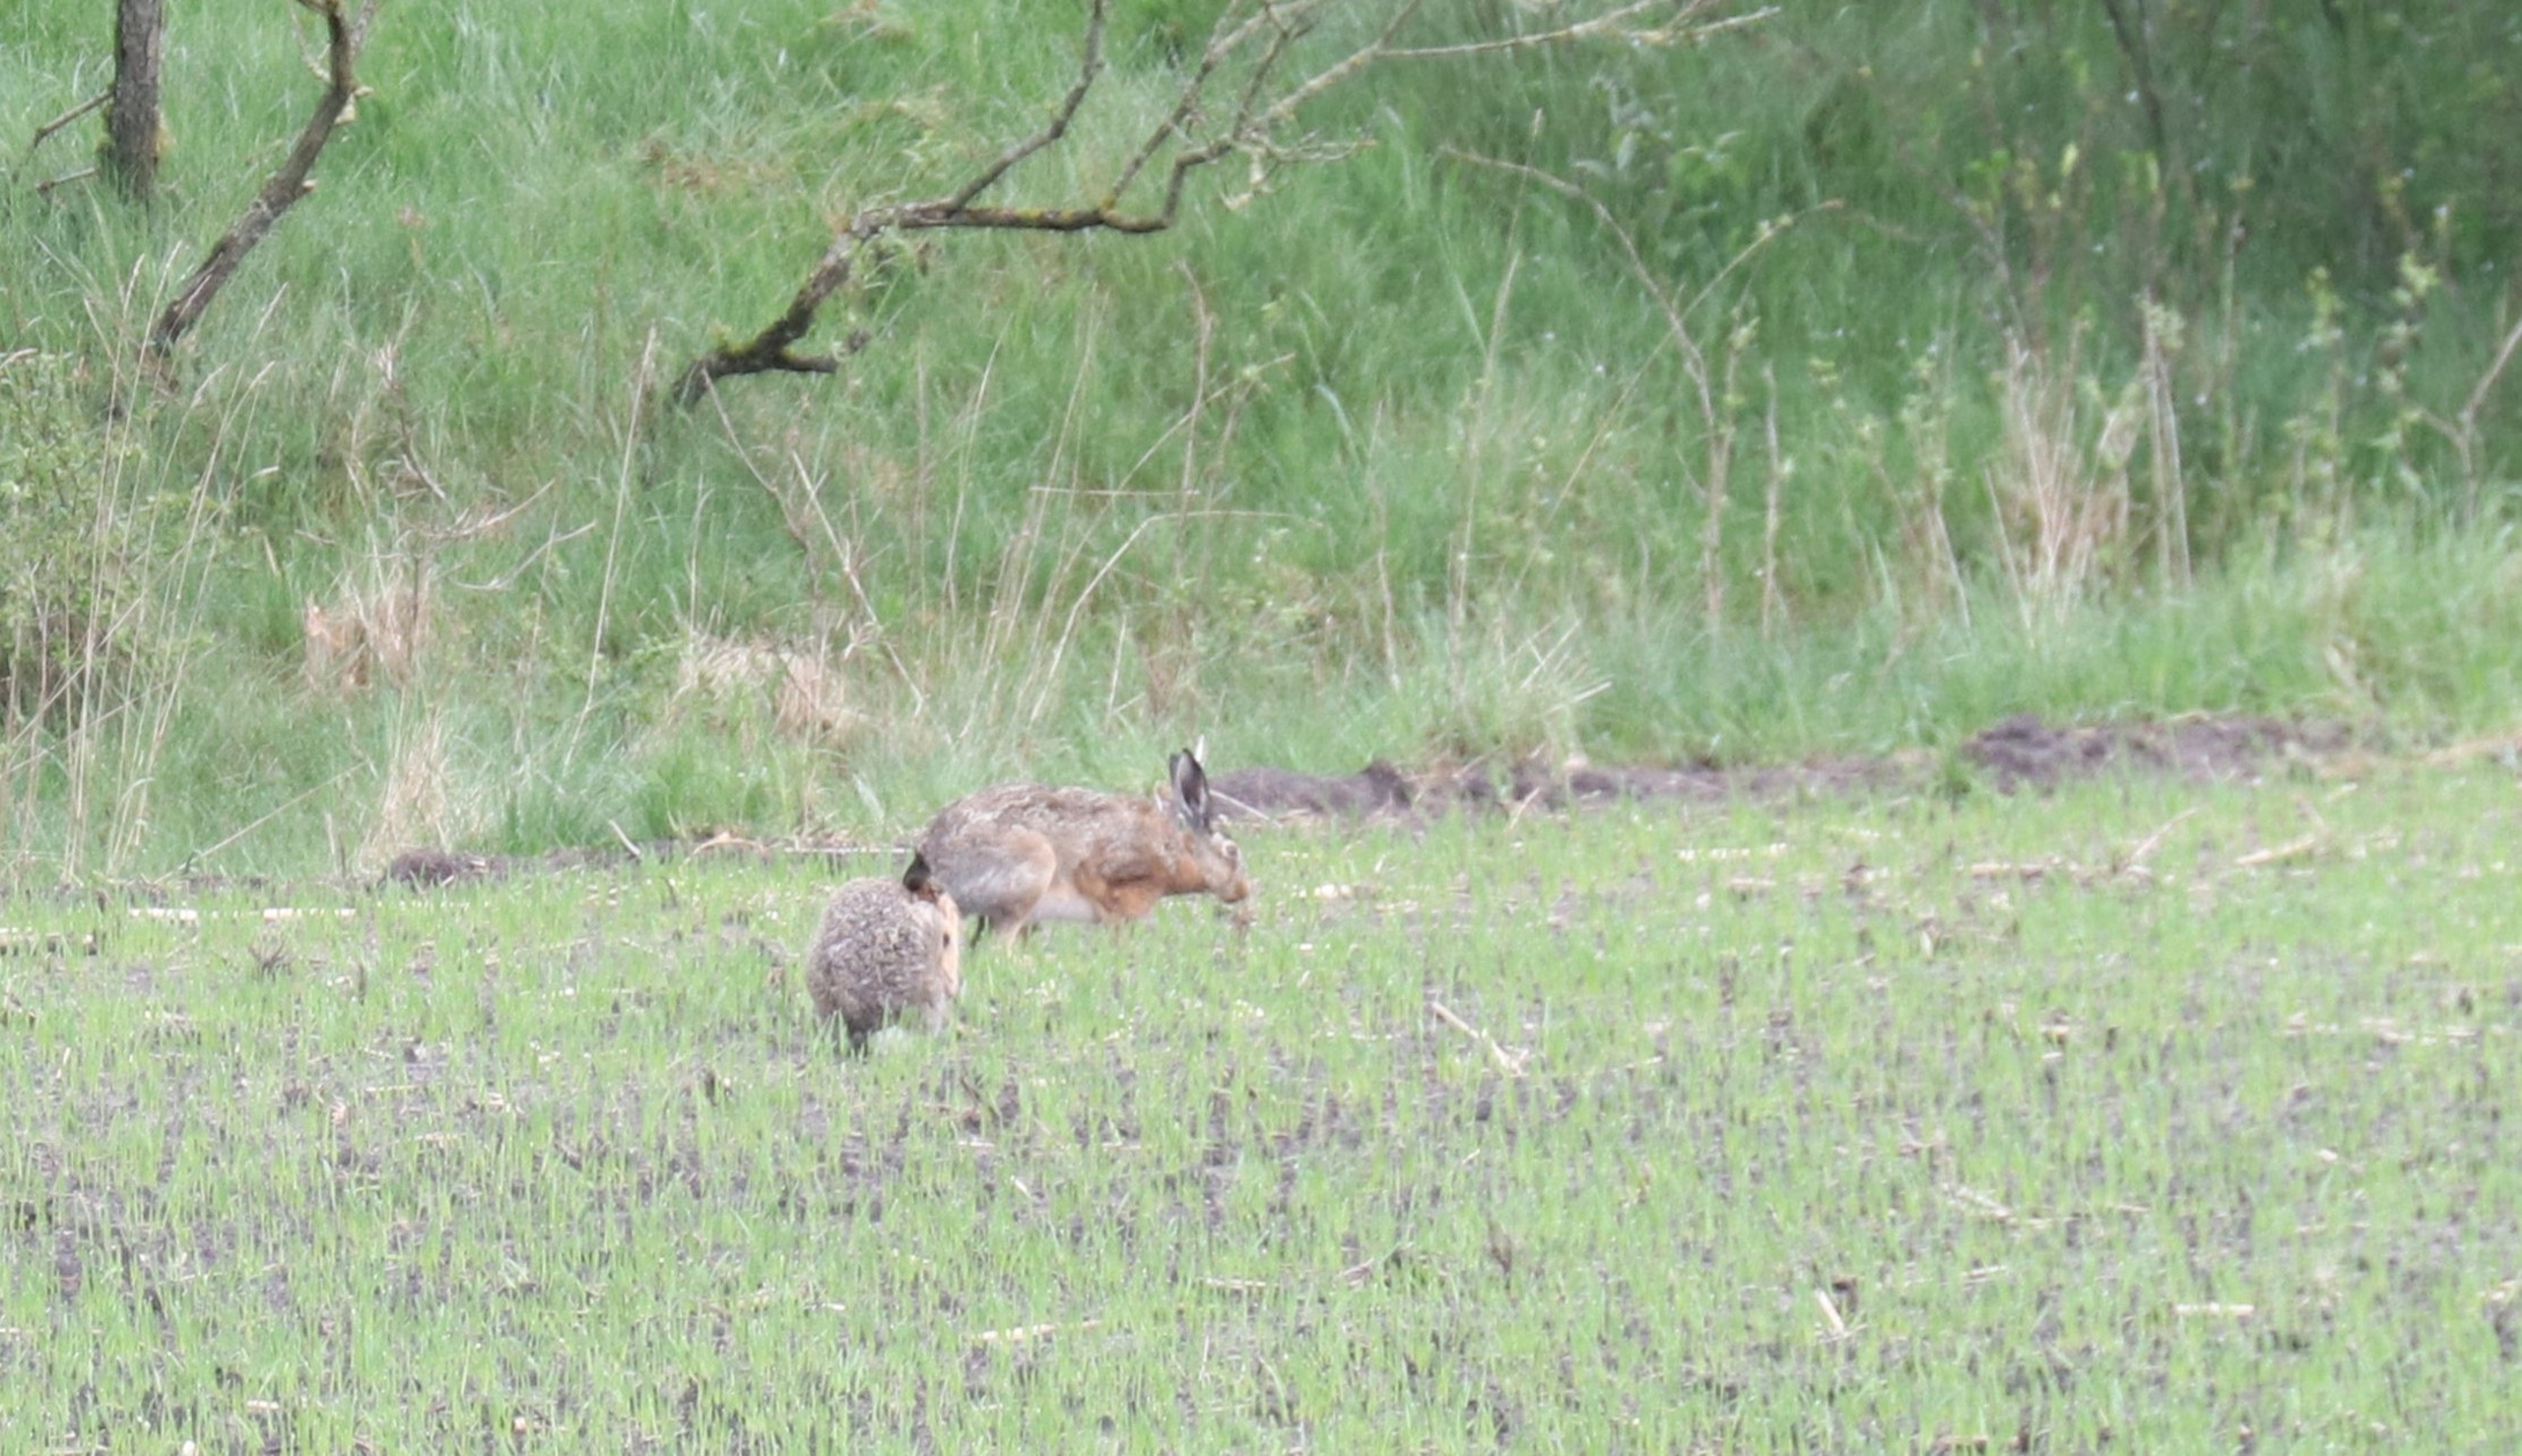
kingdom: Animalia
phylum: Chordata
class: Mammalia
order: Lagomorpha
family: Leporidae
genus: Lepus
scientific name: Lepus europaeus
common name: Hare
